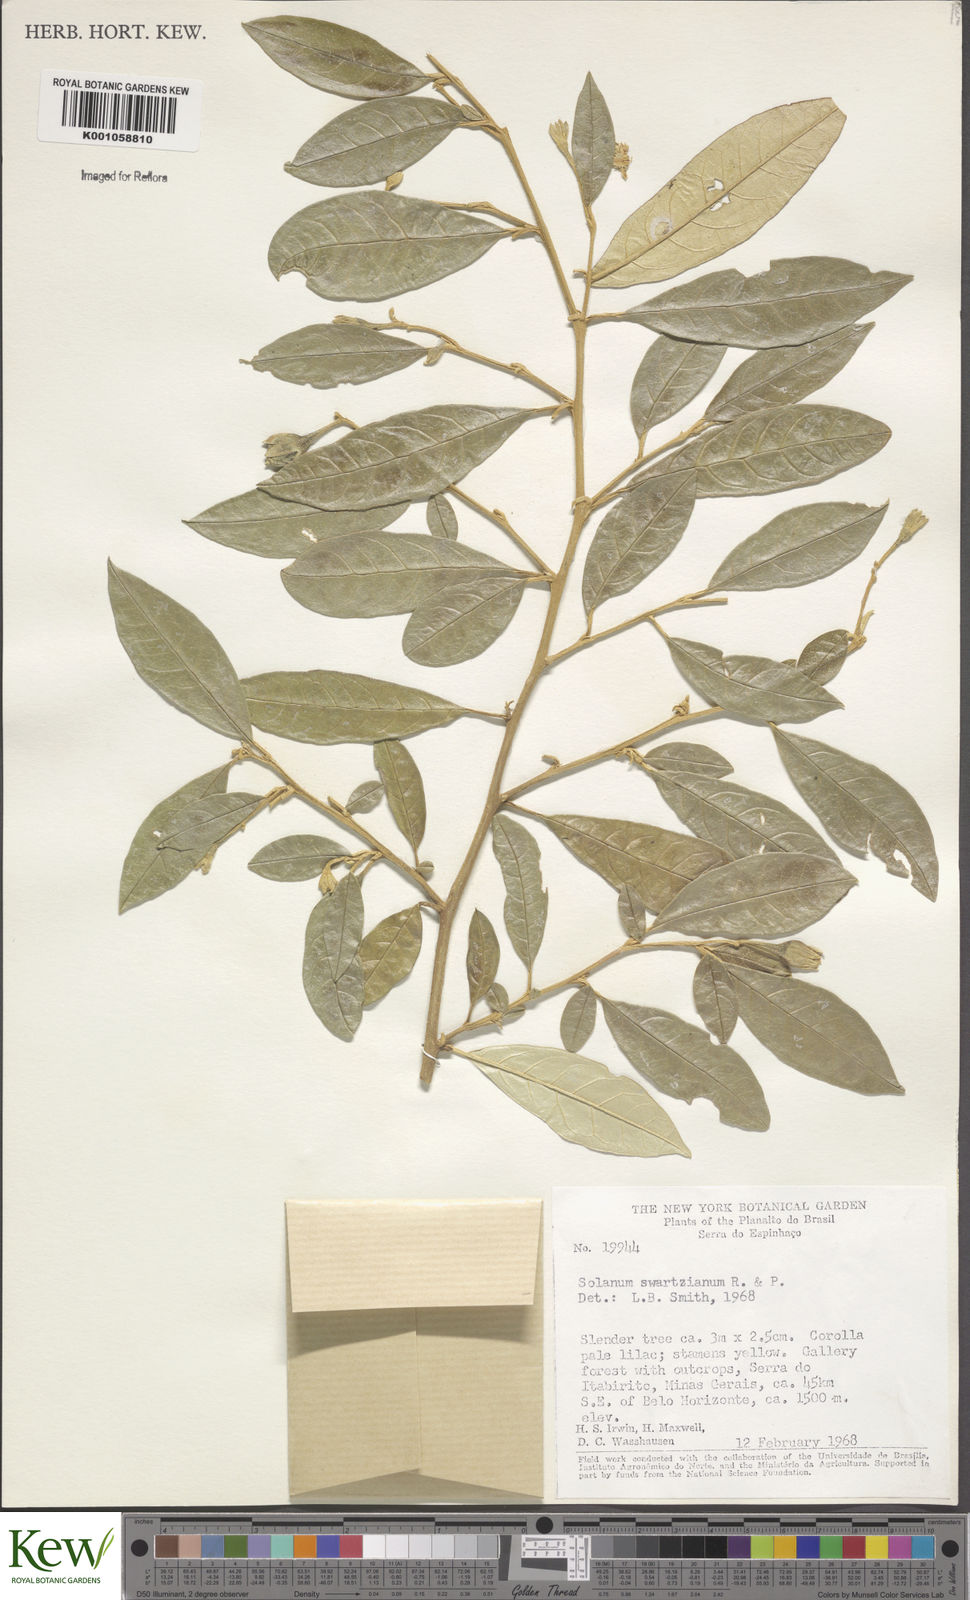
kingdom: Plantae
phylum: Tracheophyta
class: Magnoliopsida
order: Solanales
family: Solanaceae
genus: Solanum
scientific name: Solanum swartzianum
